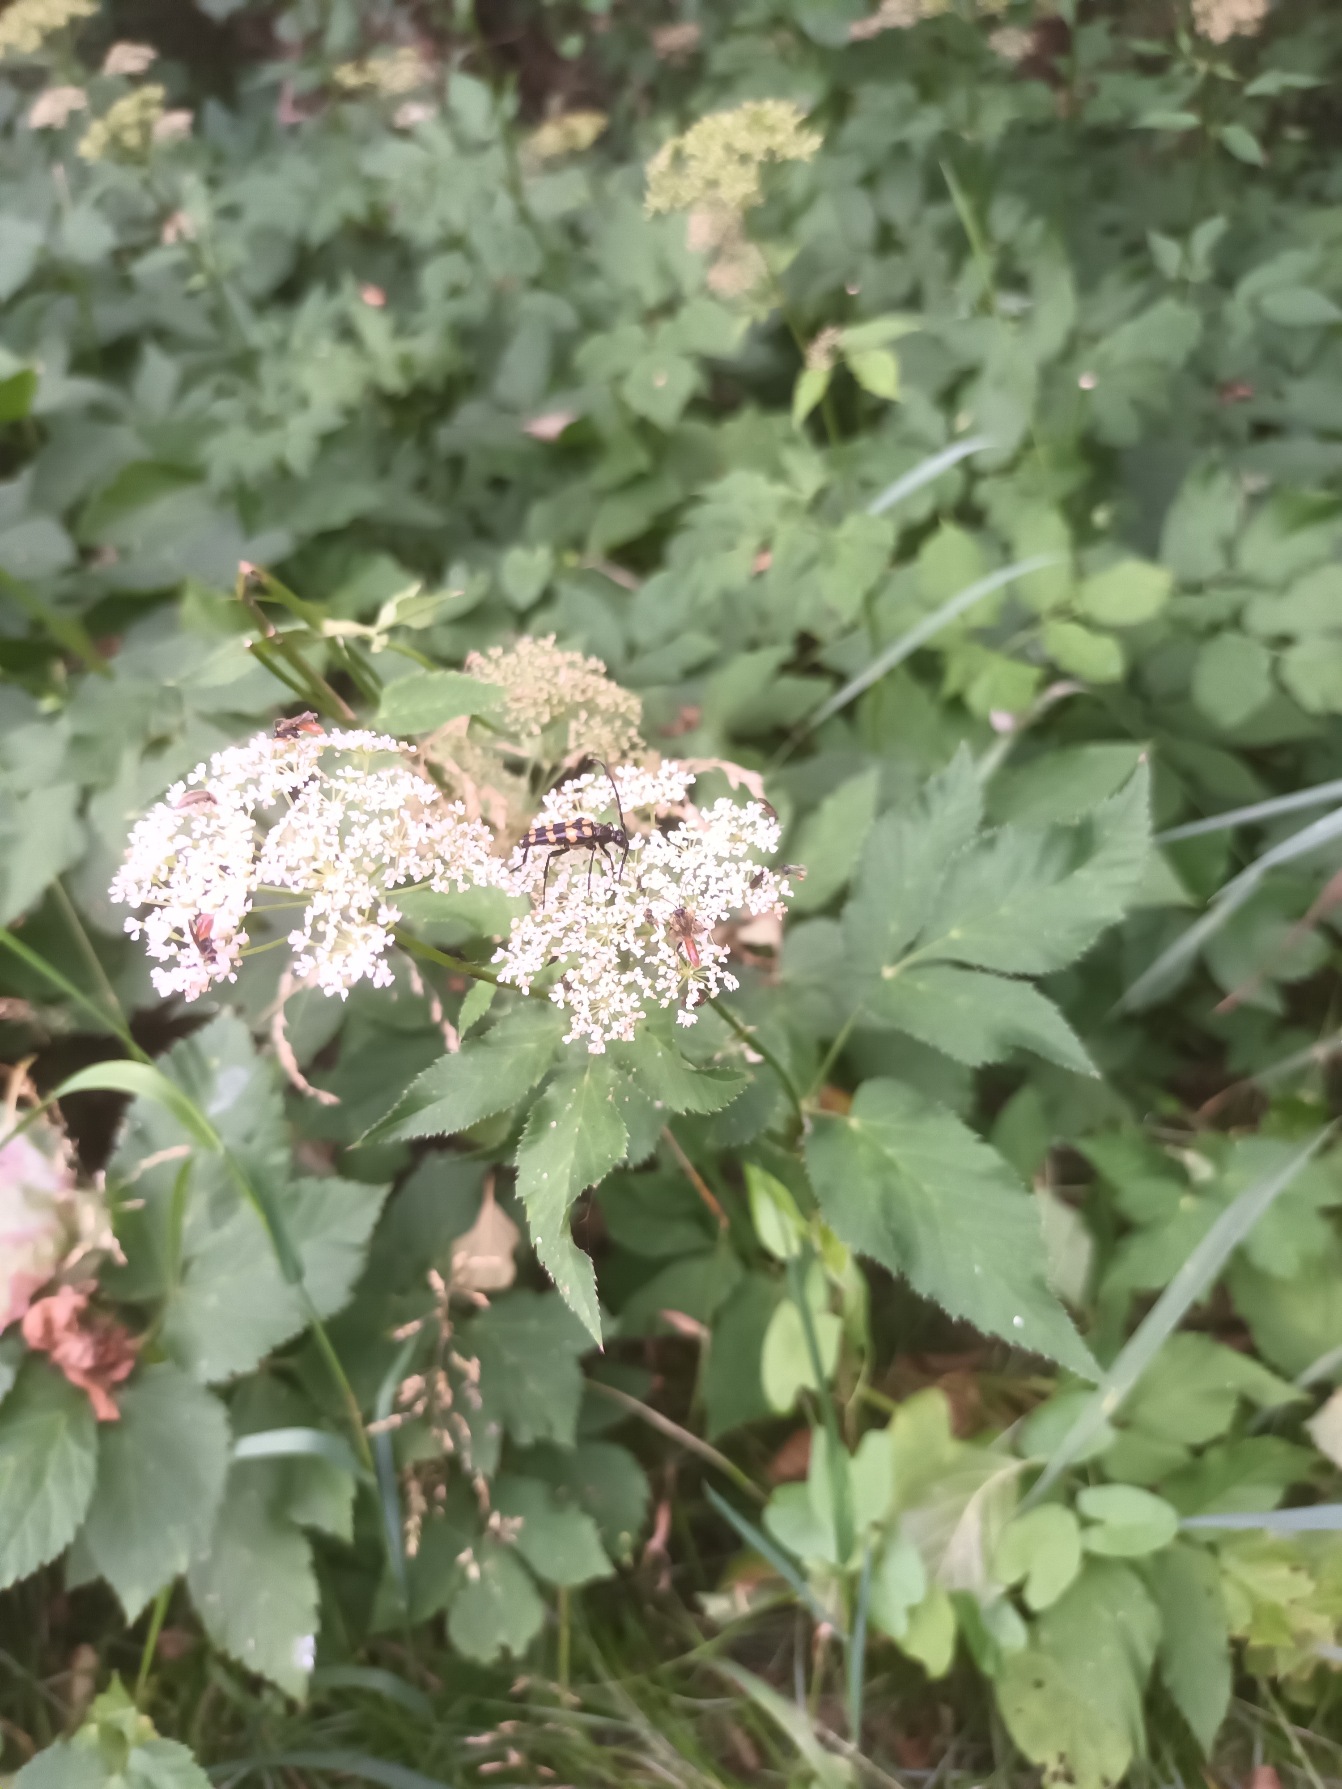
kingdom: Plantae
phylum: Tracheophyta
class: Magnoliopsida
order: Apiales
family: Apiaceae
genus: Aegopodium
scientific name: Aegopodium podagraria
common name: Skvalderkål
